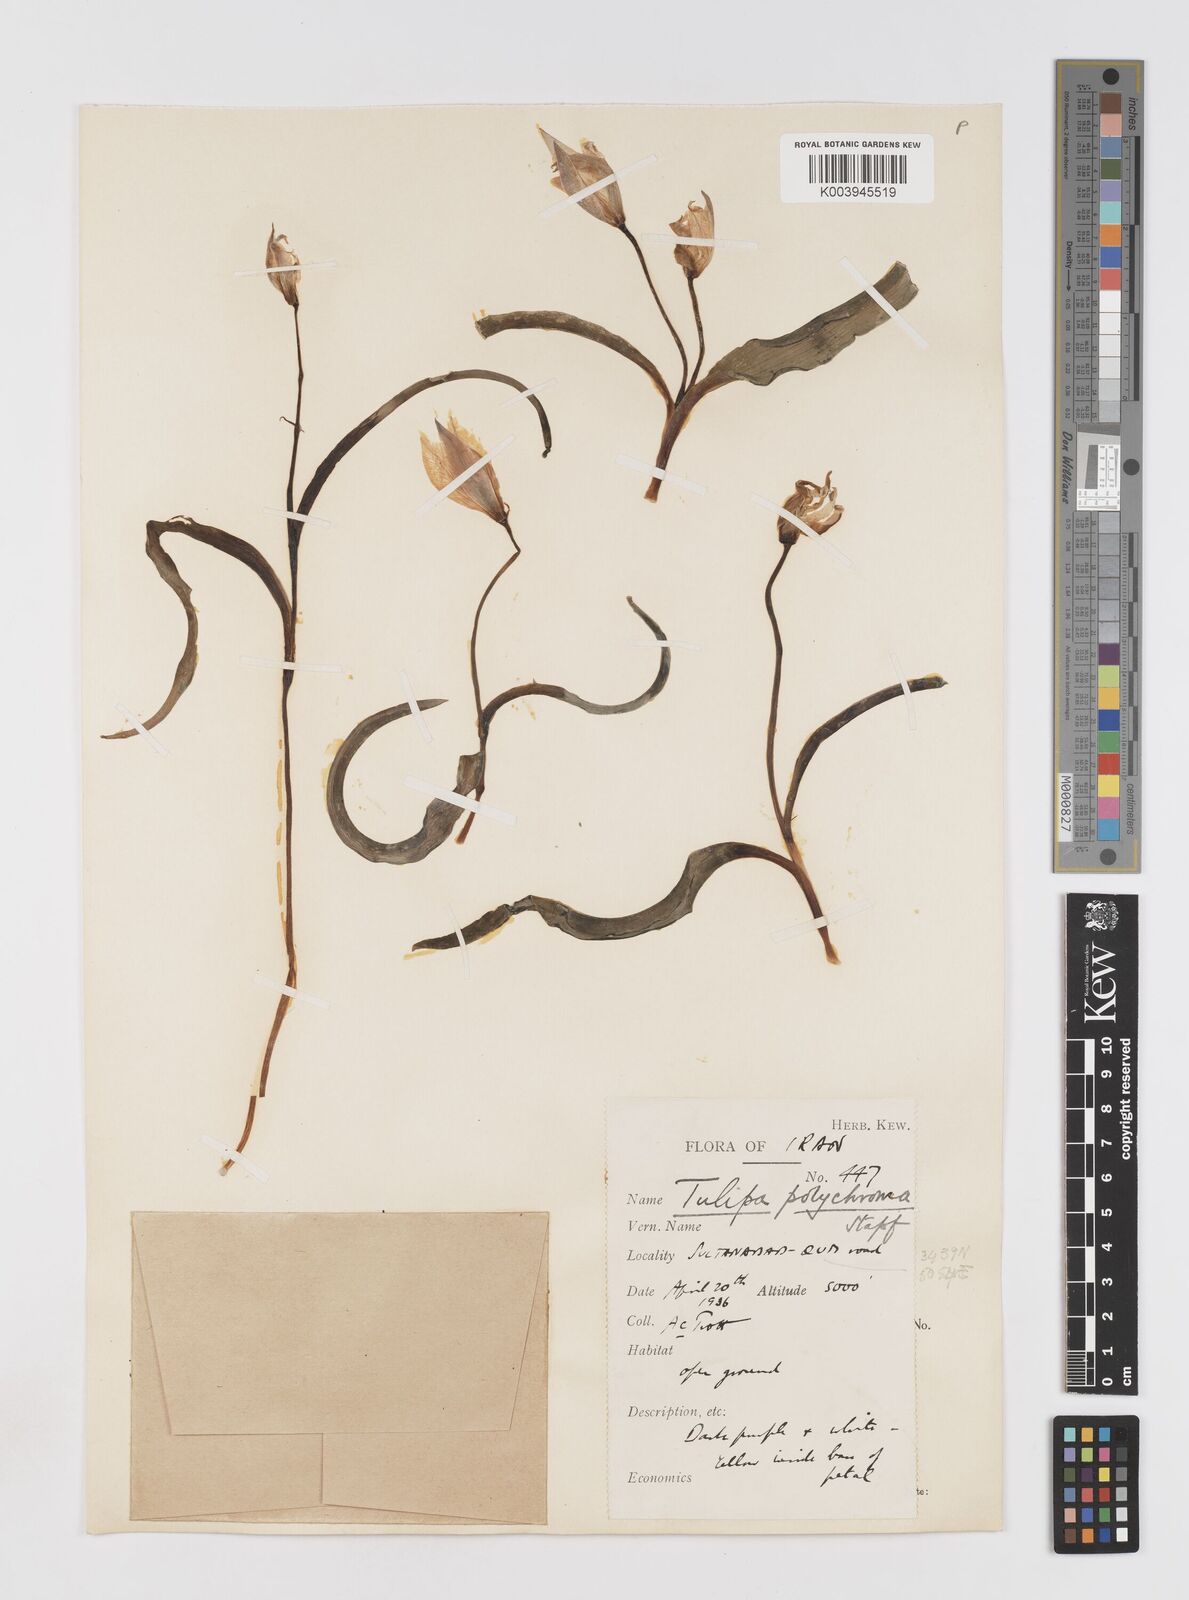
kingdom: Plantae
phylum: Tracheophyta
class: Liliopsida
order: Liliales
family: Liliaceae
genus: Tulipa
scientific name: Tulipa biflora
